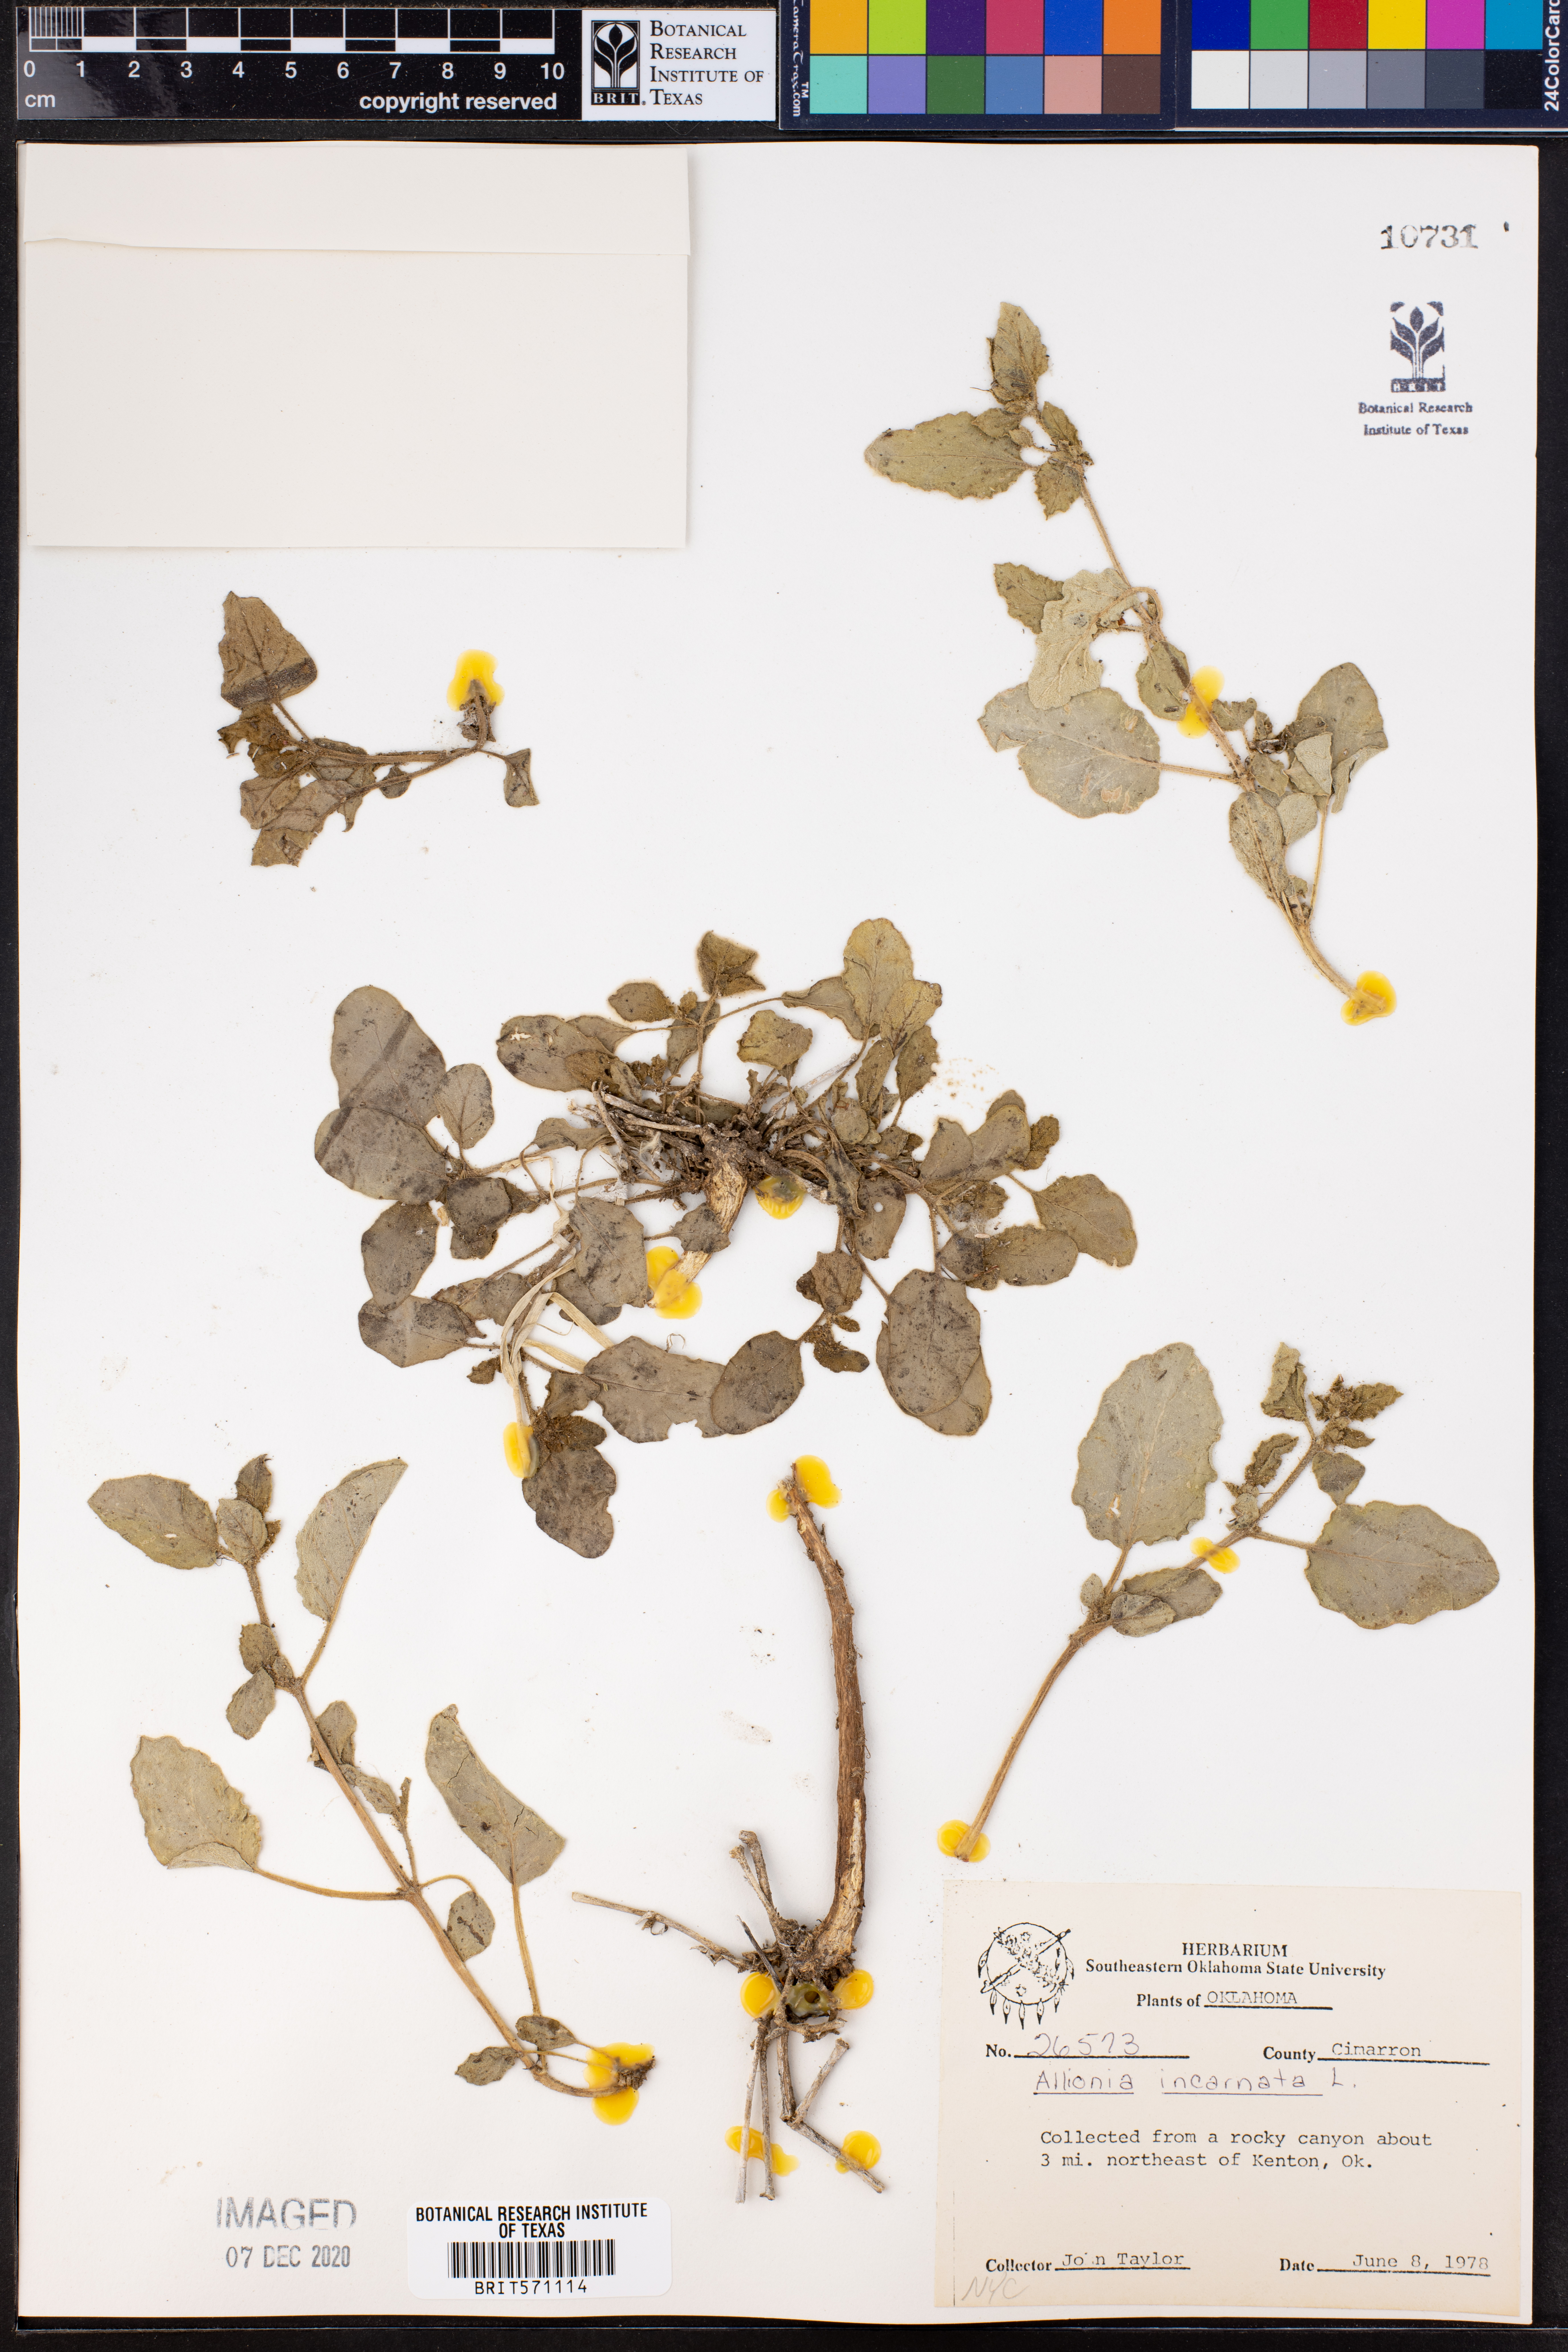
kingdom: Plantae
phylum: Tracheophyta
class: Magnoliopsida
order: Caryophyllales
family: Nyctaginaceae
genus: Allionia
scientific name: Allionia incarnata
